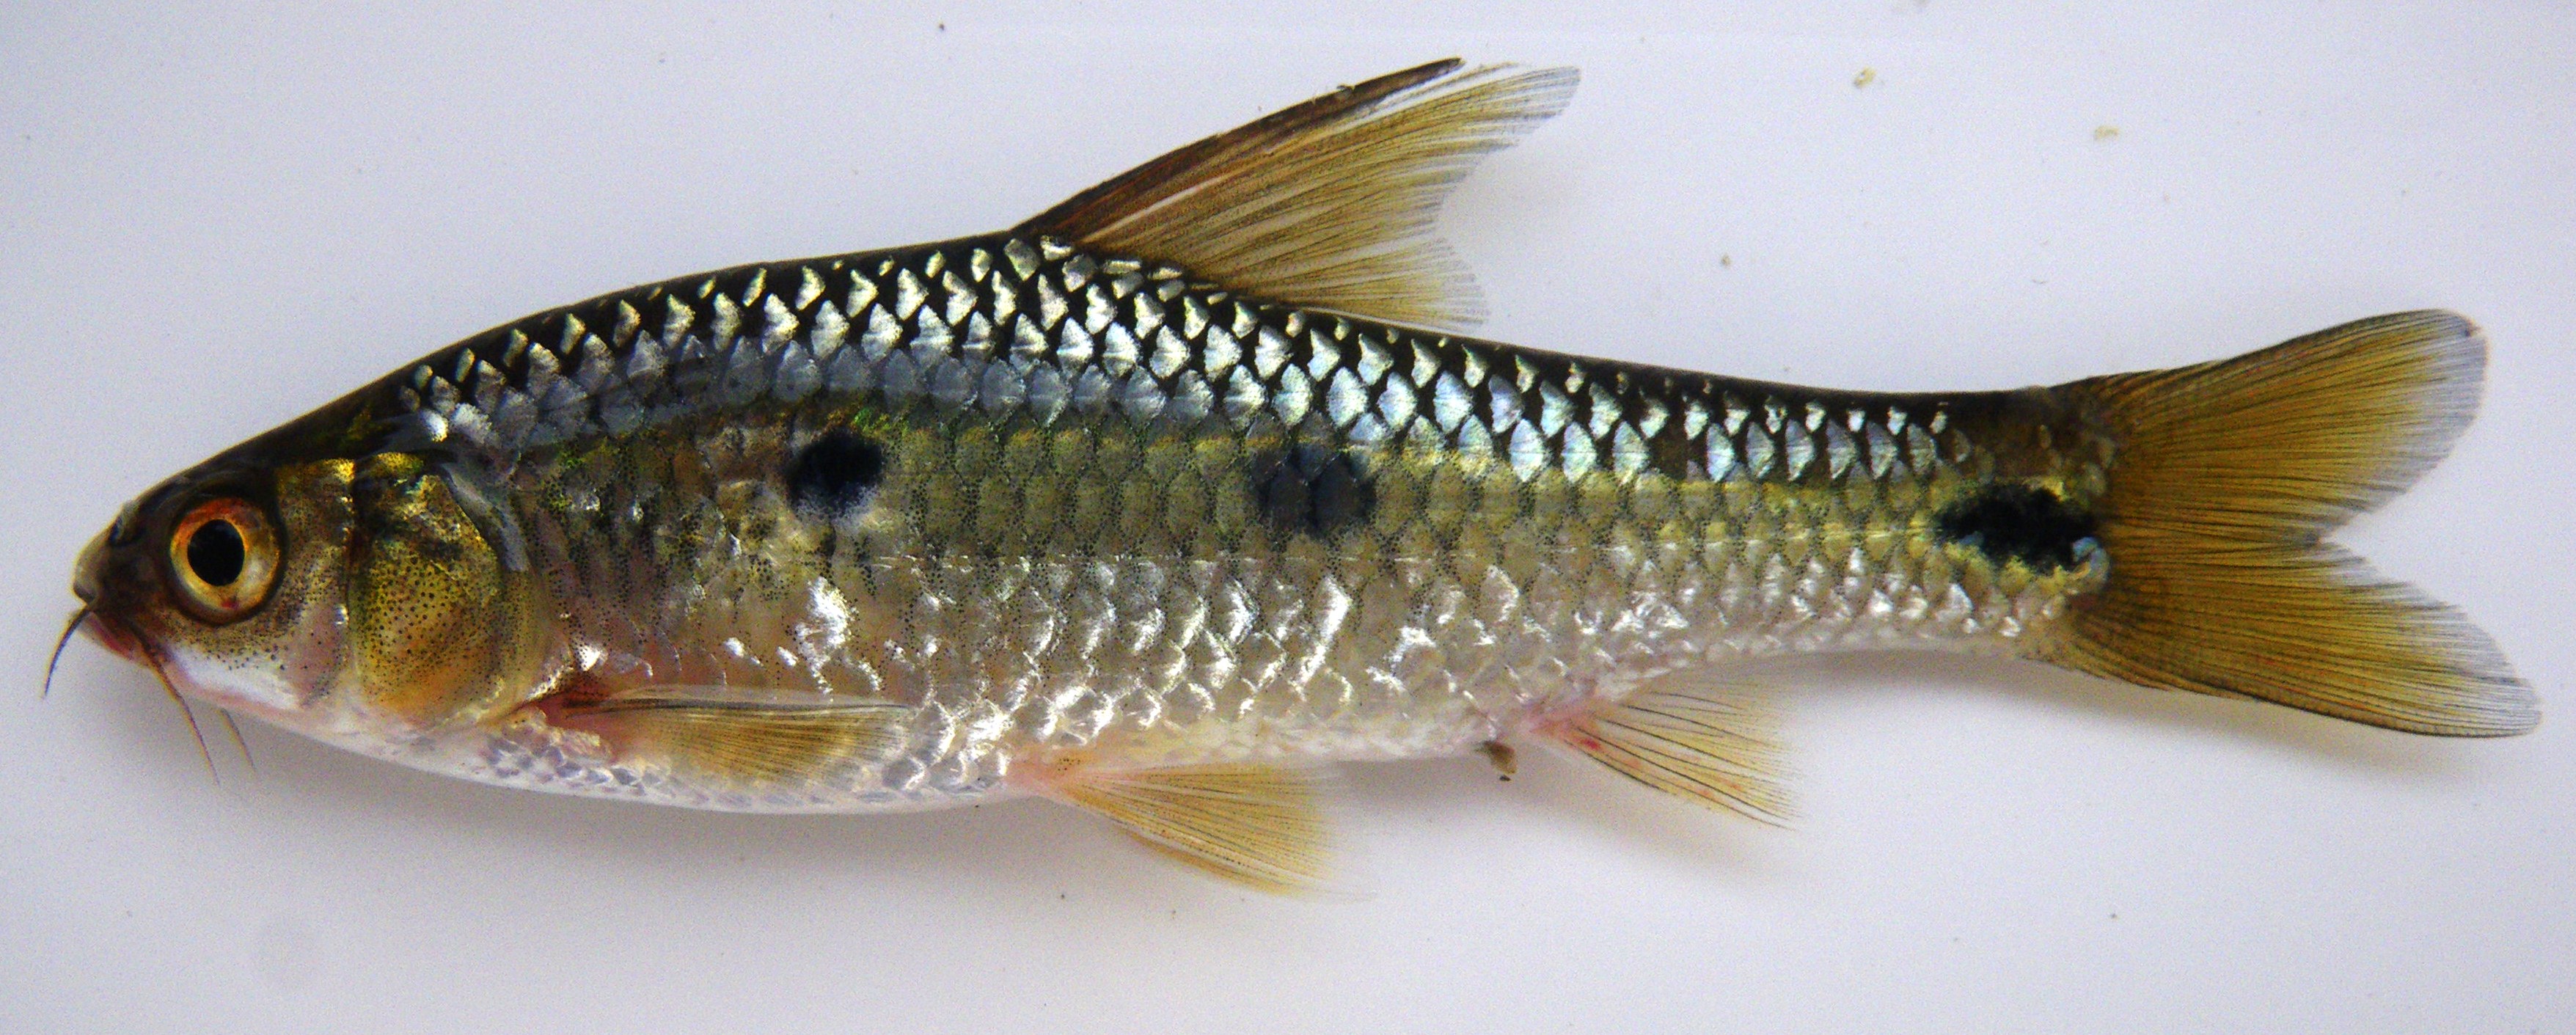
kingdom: Animalia
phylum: Chordata
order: Cypriniformes
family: Cyprinidae
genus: Enteromius
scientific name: Enteromius trimaculatus
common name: Threespot barb
